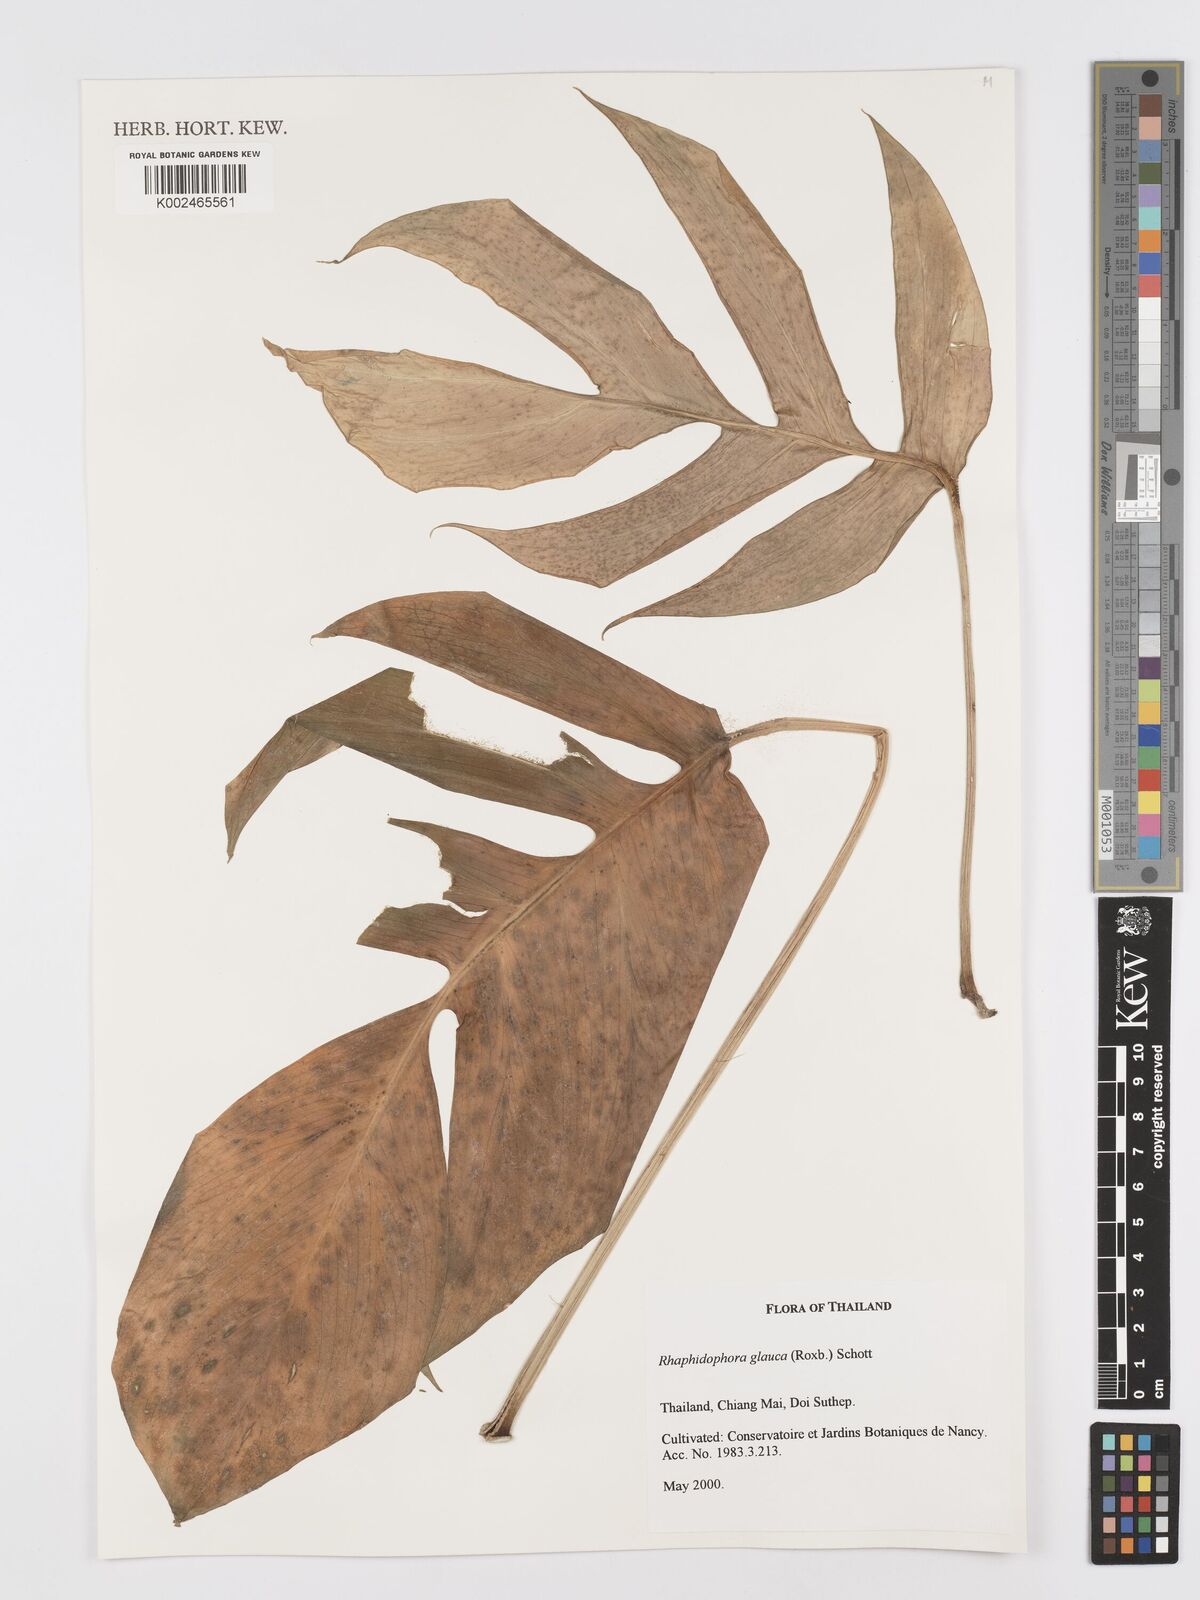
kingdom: Plantae
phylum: Tracheophyta
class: Liliopsida
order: Alismatales
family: Araceae
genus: Rhaphidophora
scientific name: Rhaphidophora glauca
